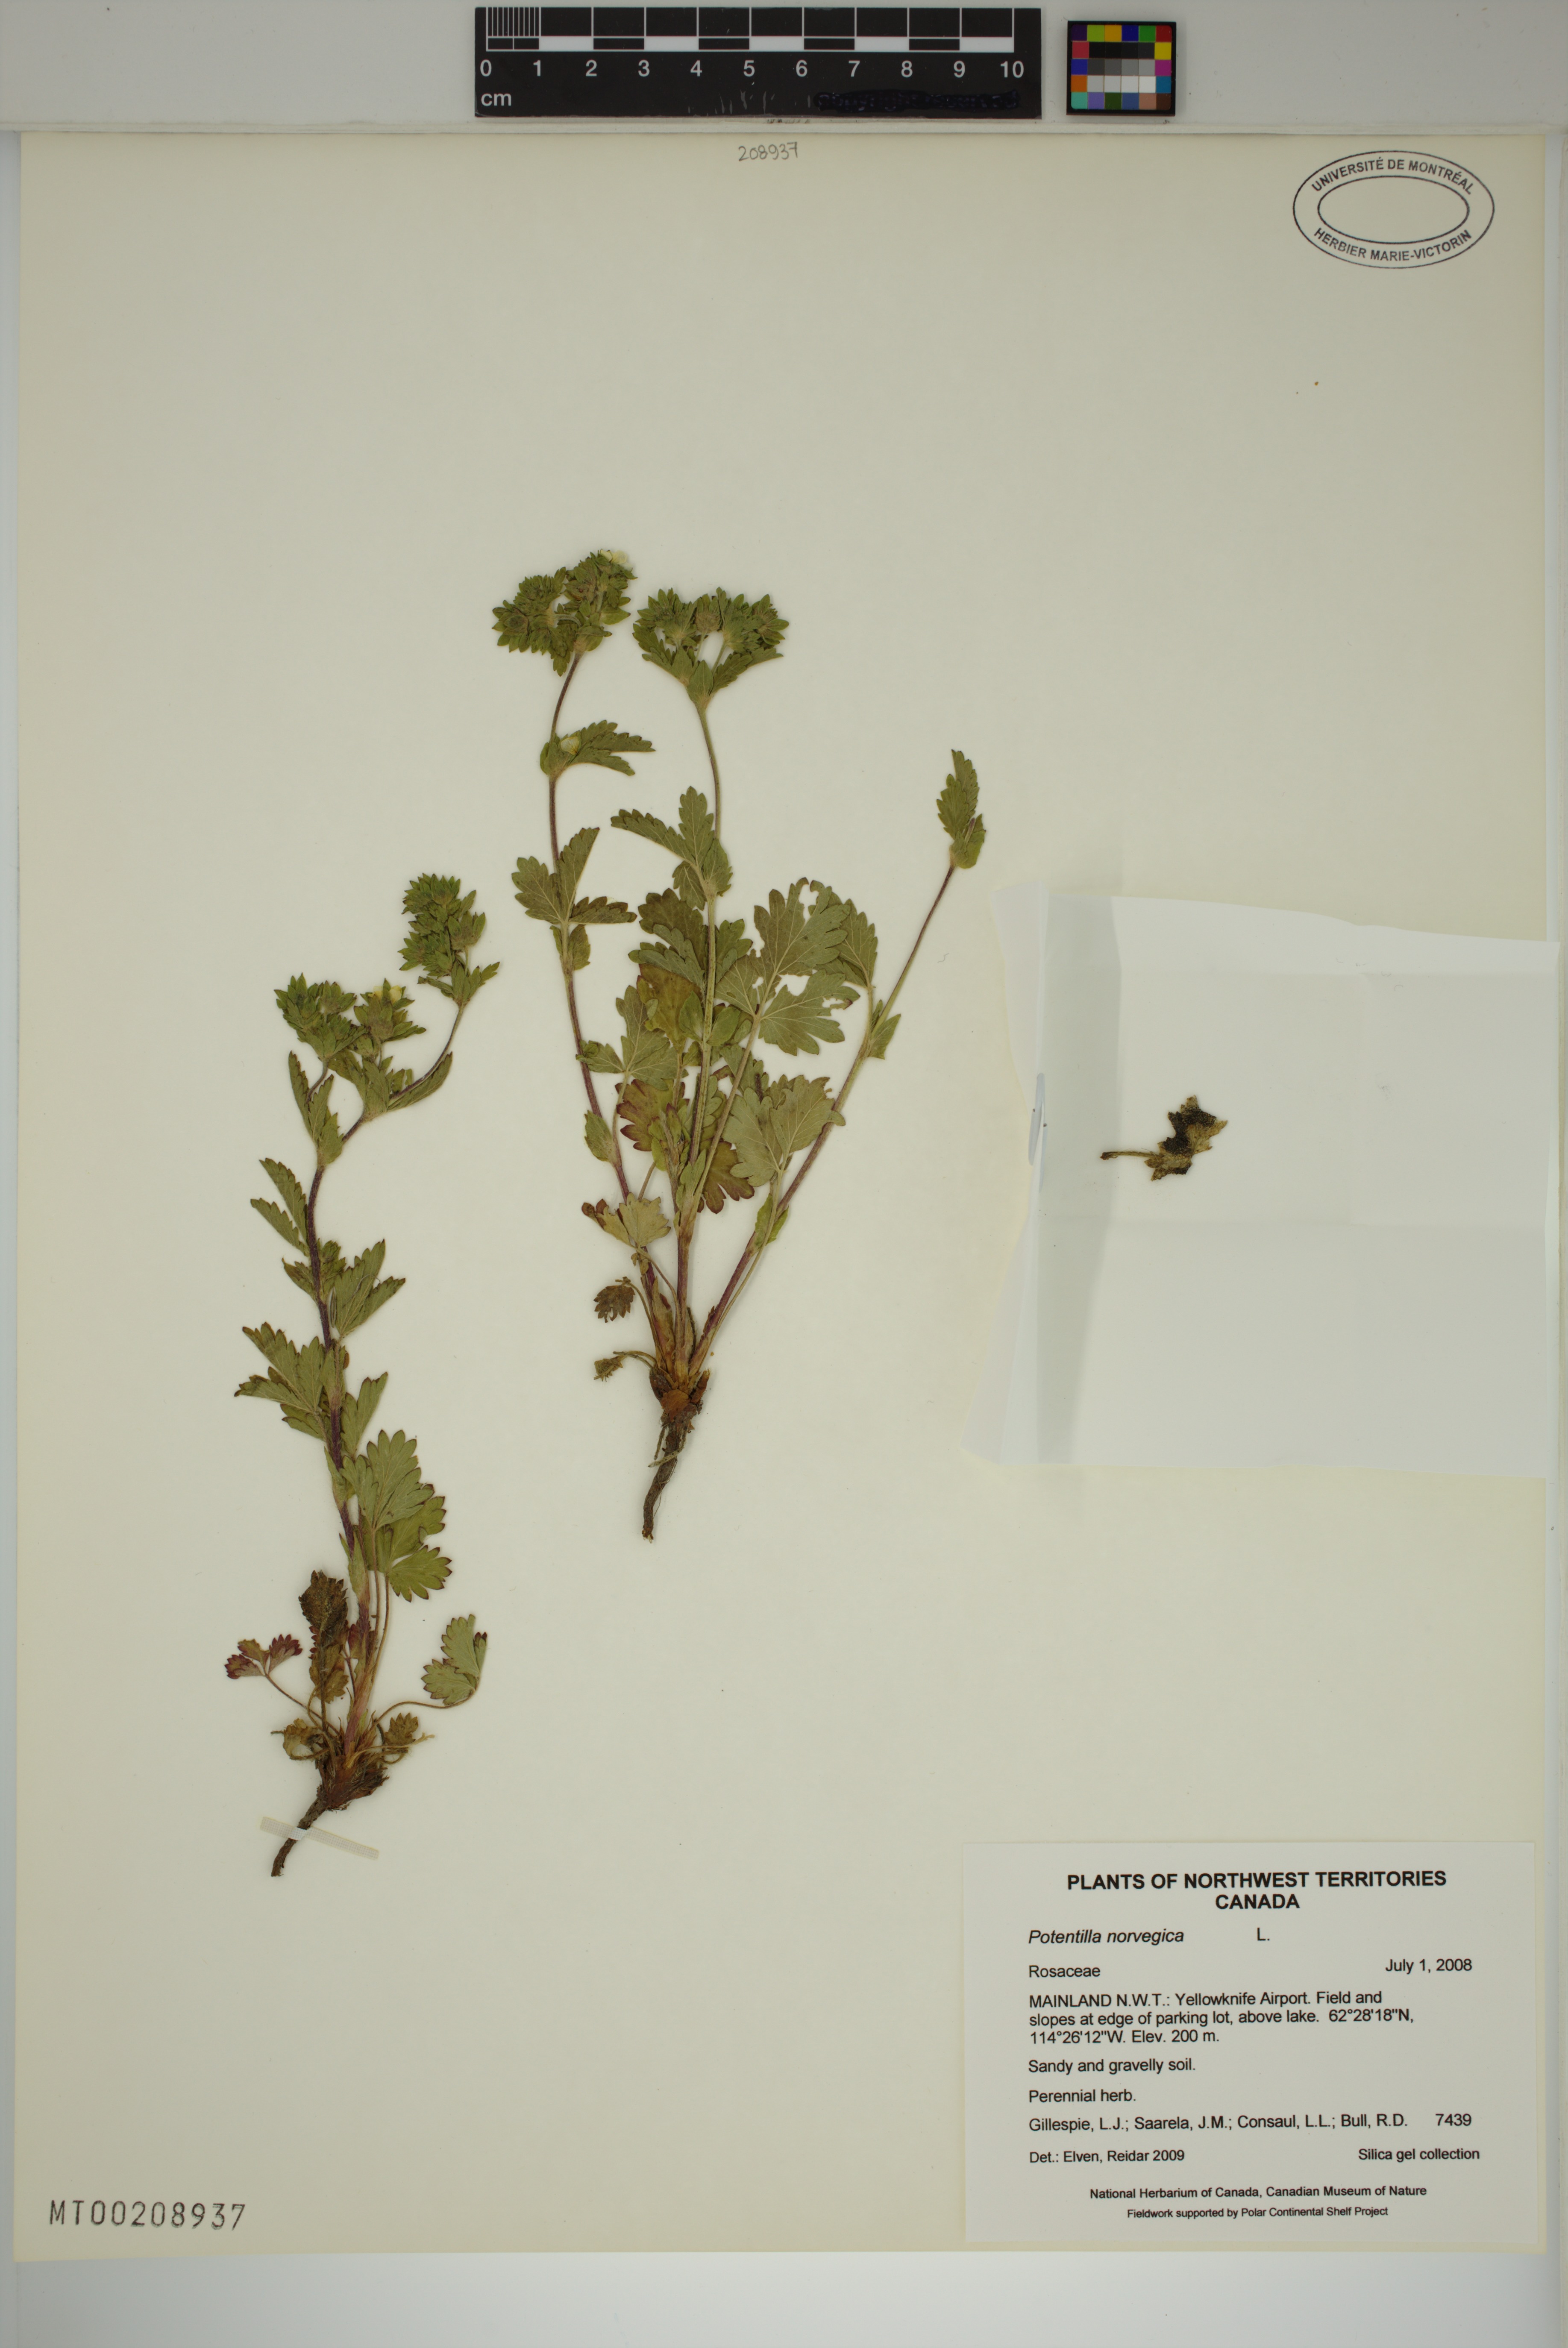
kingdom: Plantae
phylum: Tracheophyta
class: Magnoliopsida
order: Rosales
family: Rosaceae
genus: Potentilla
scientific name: Potentilla norvegica
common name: Ternate-leaved cinquefoil
